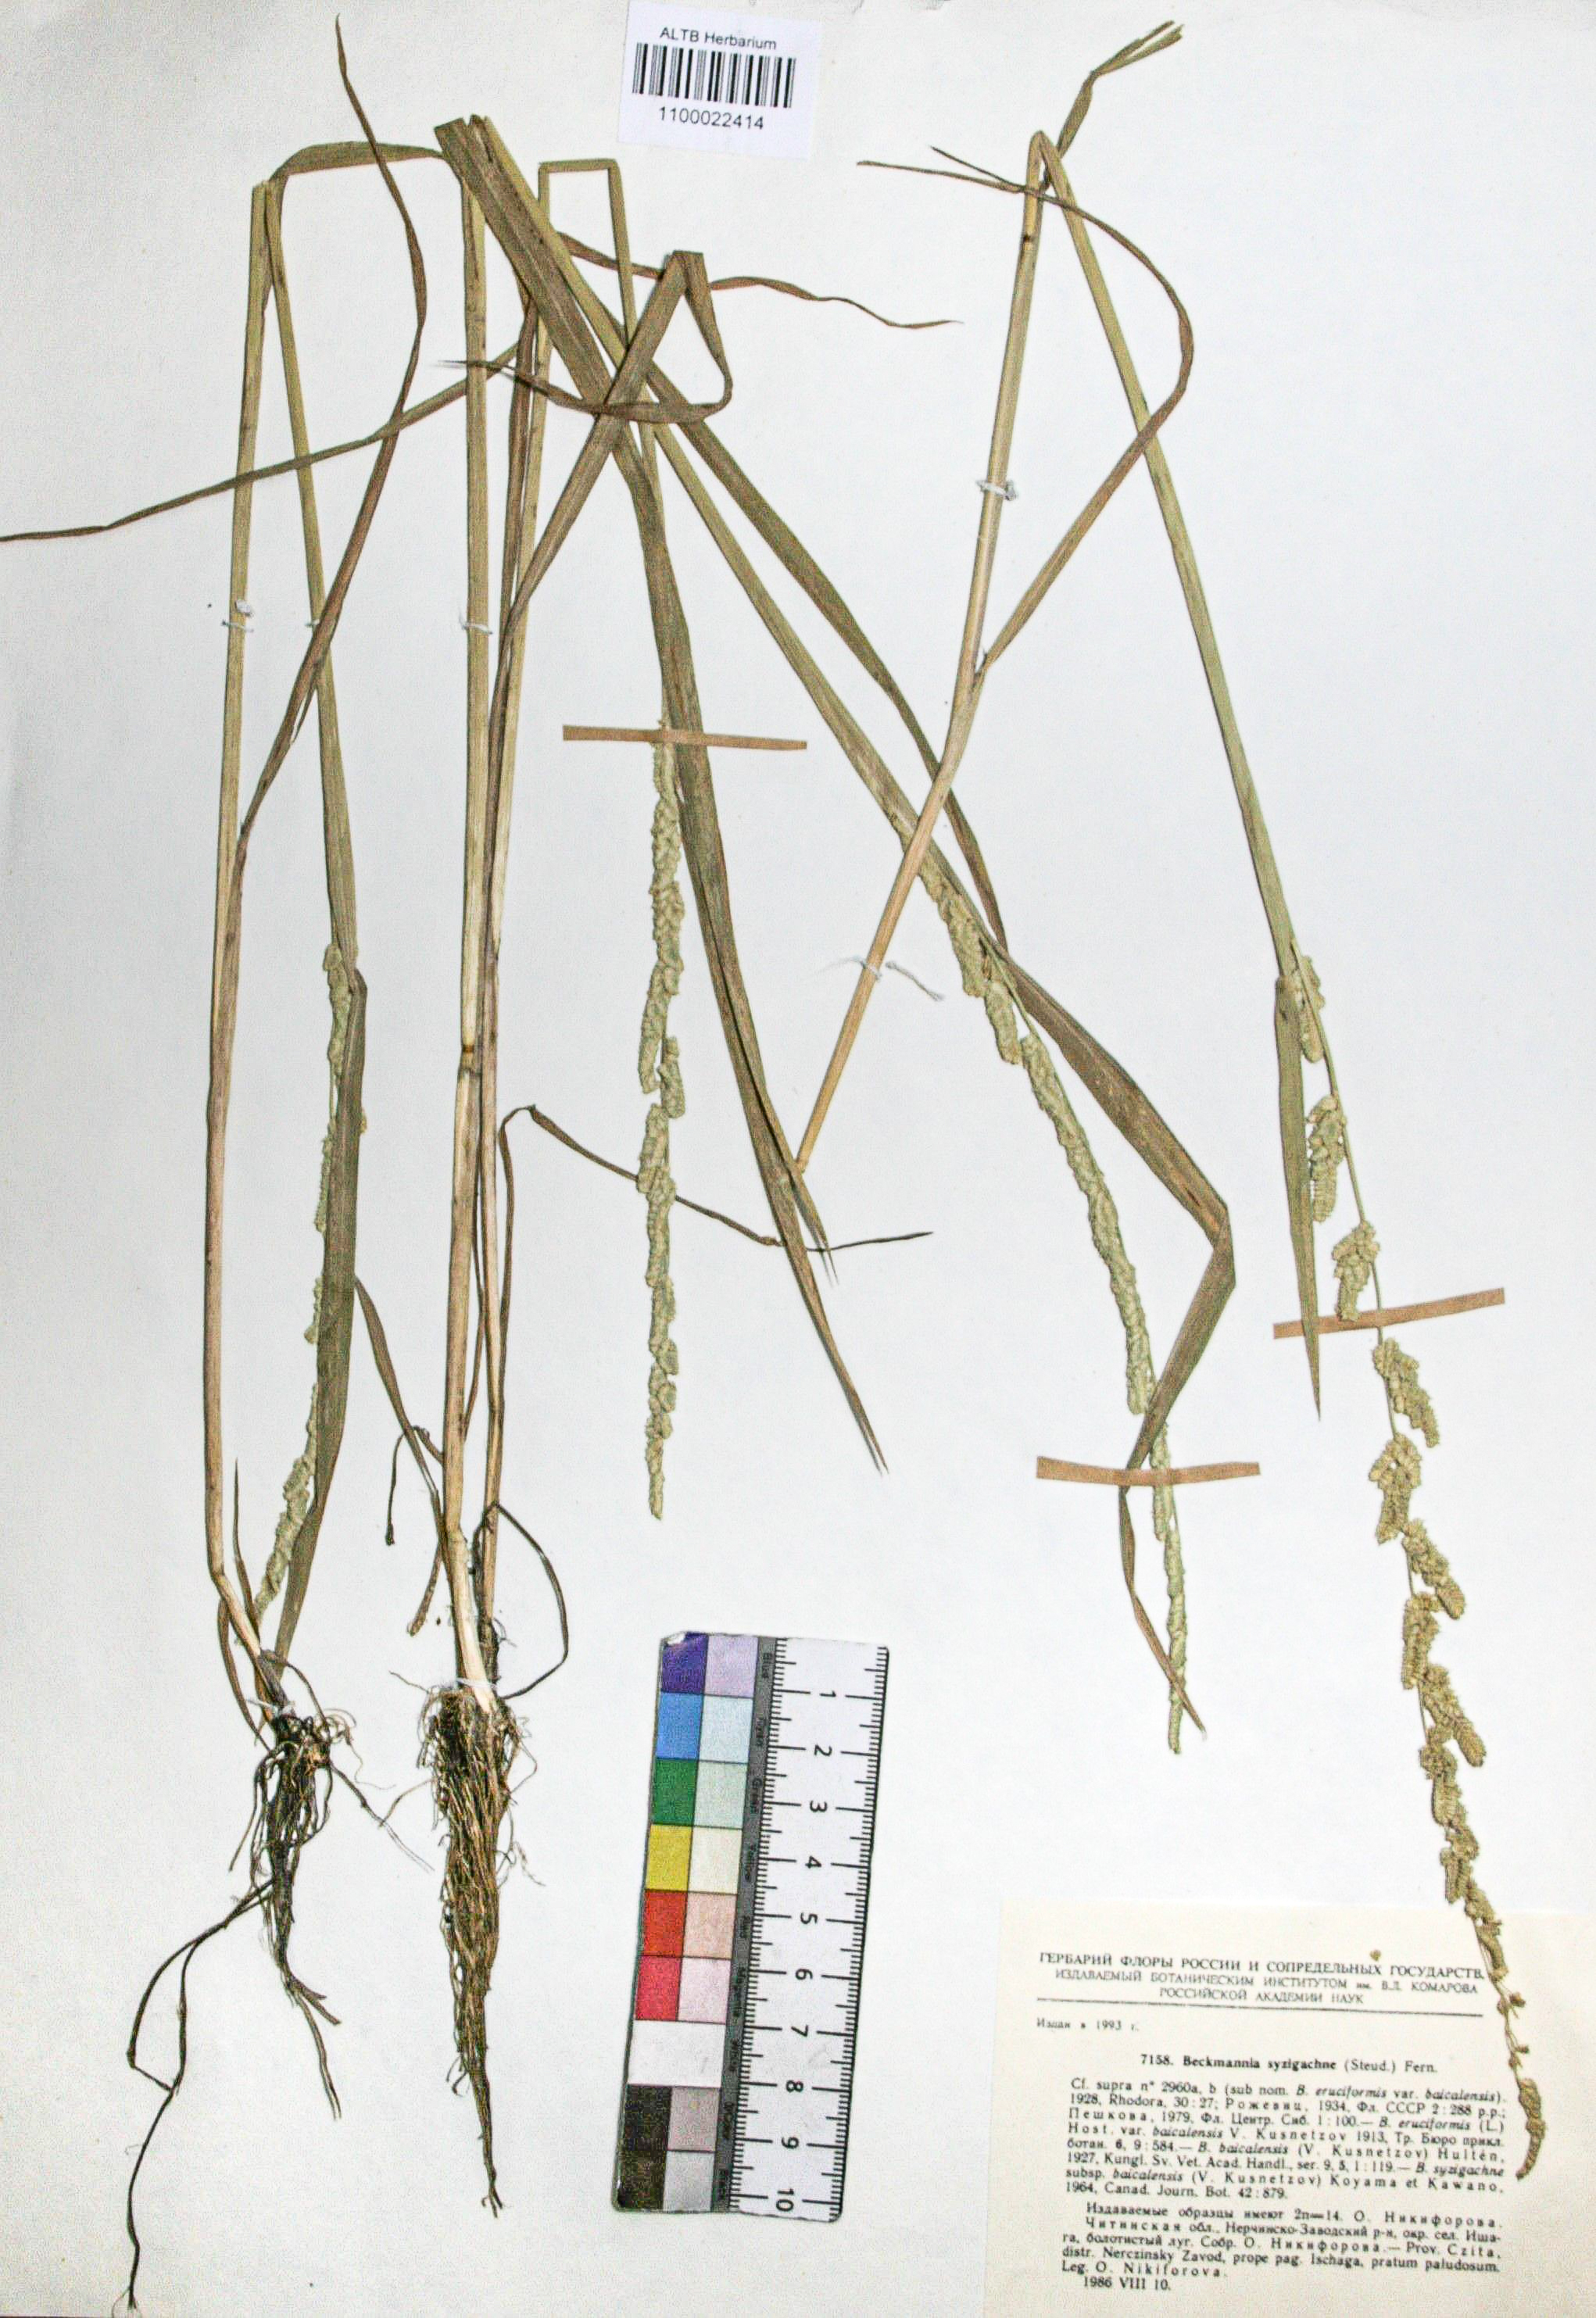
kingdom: Plantae
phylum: Tracheophyta
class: Liliopsida
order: Poales
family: Poaceae
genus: Beckmannia
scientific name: Beckmannia syzigachne
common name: American slough-grass
